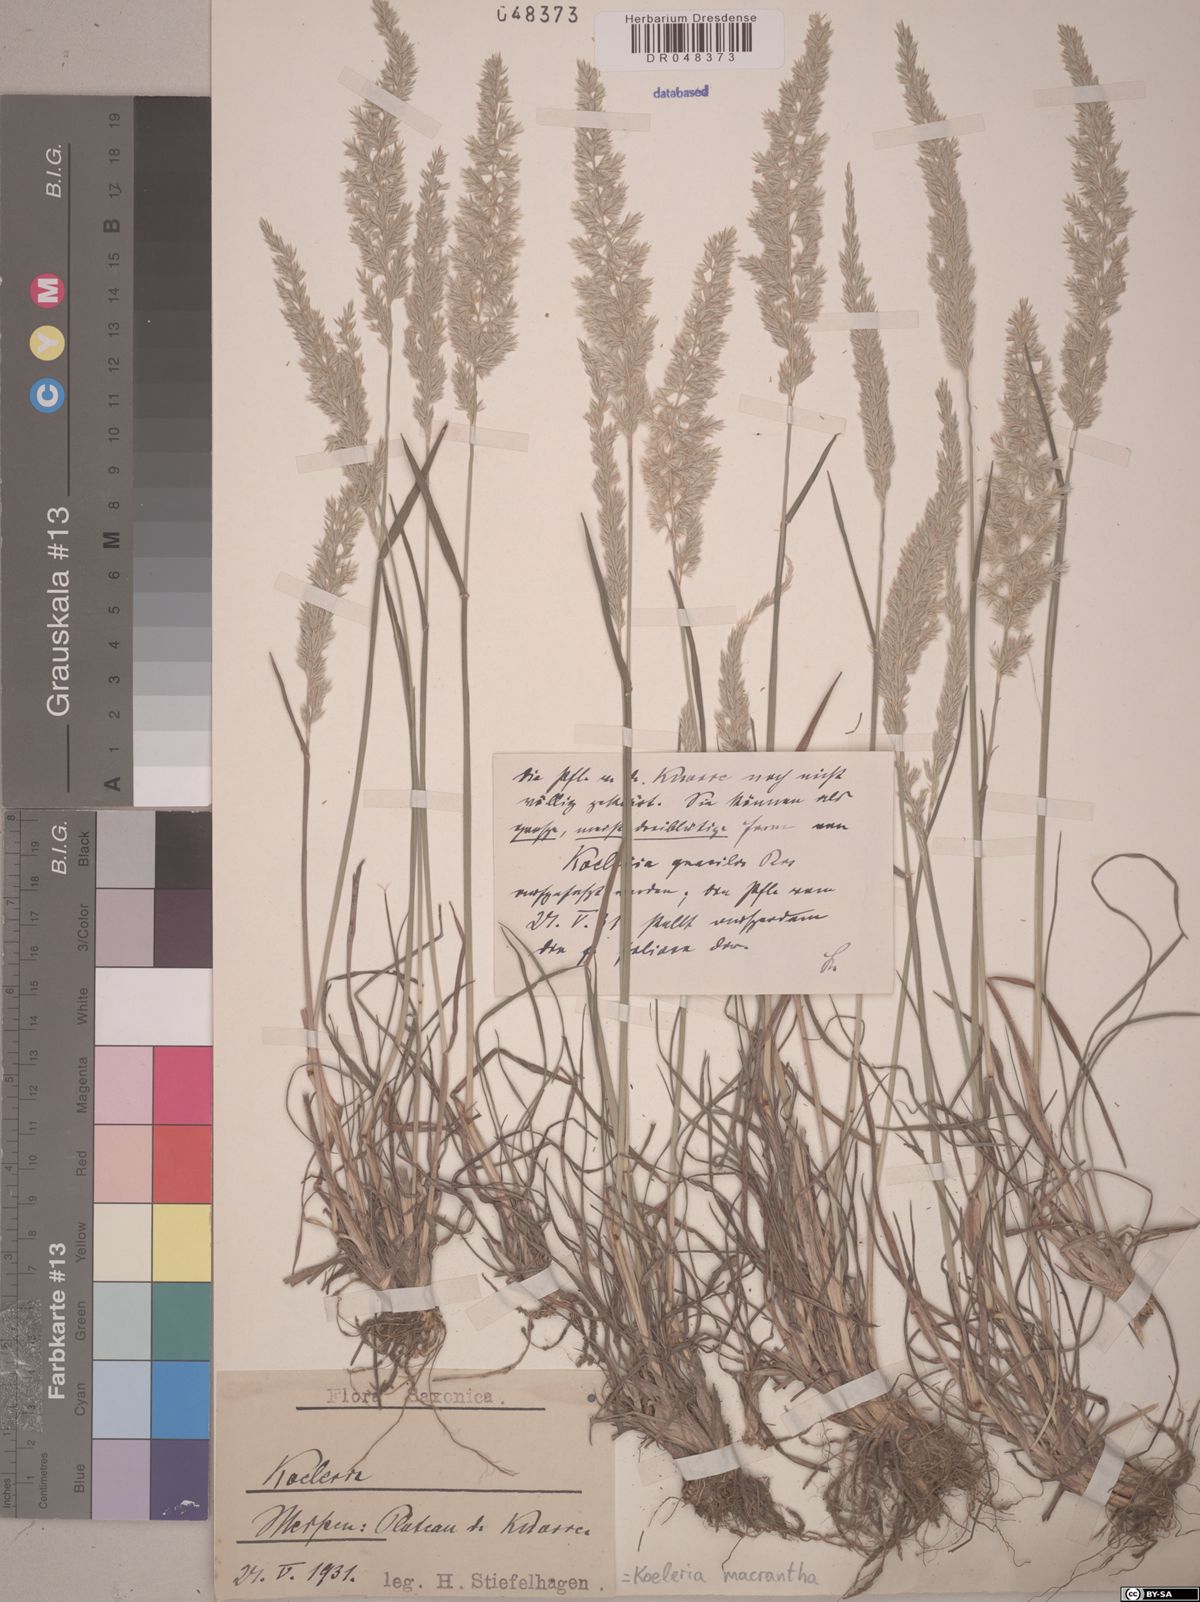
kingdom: Plantae
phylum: Tracheophyta
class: Liliopsida
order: Poales
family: Poaceae
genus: Koeleria
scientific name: Koeleria macrantha
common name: Crested hair-grass
